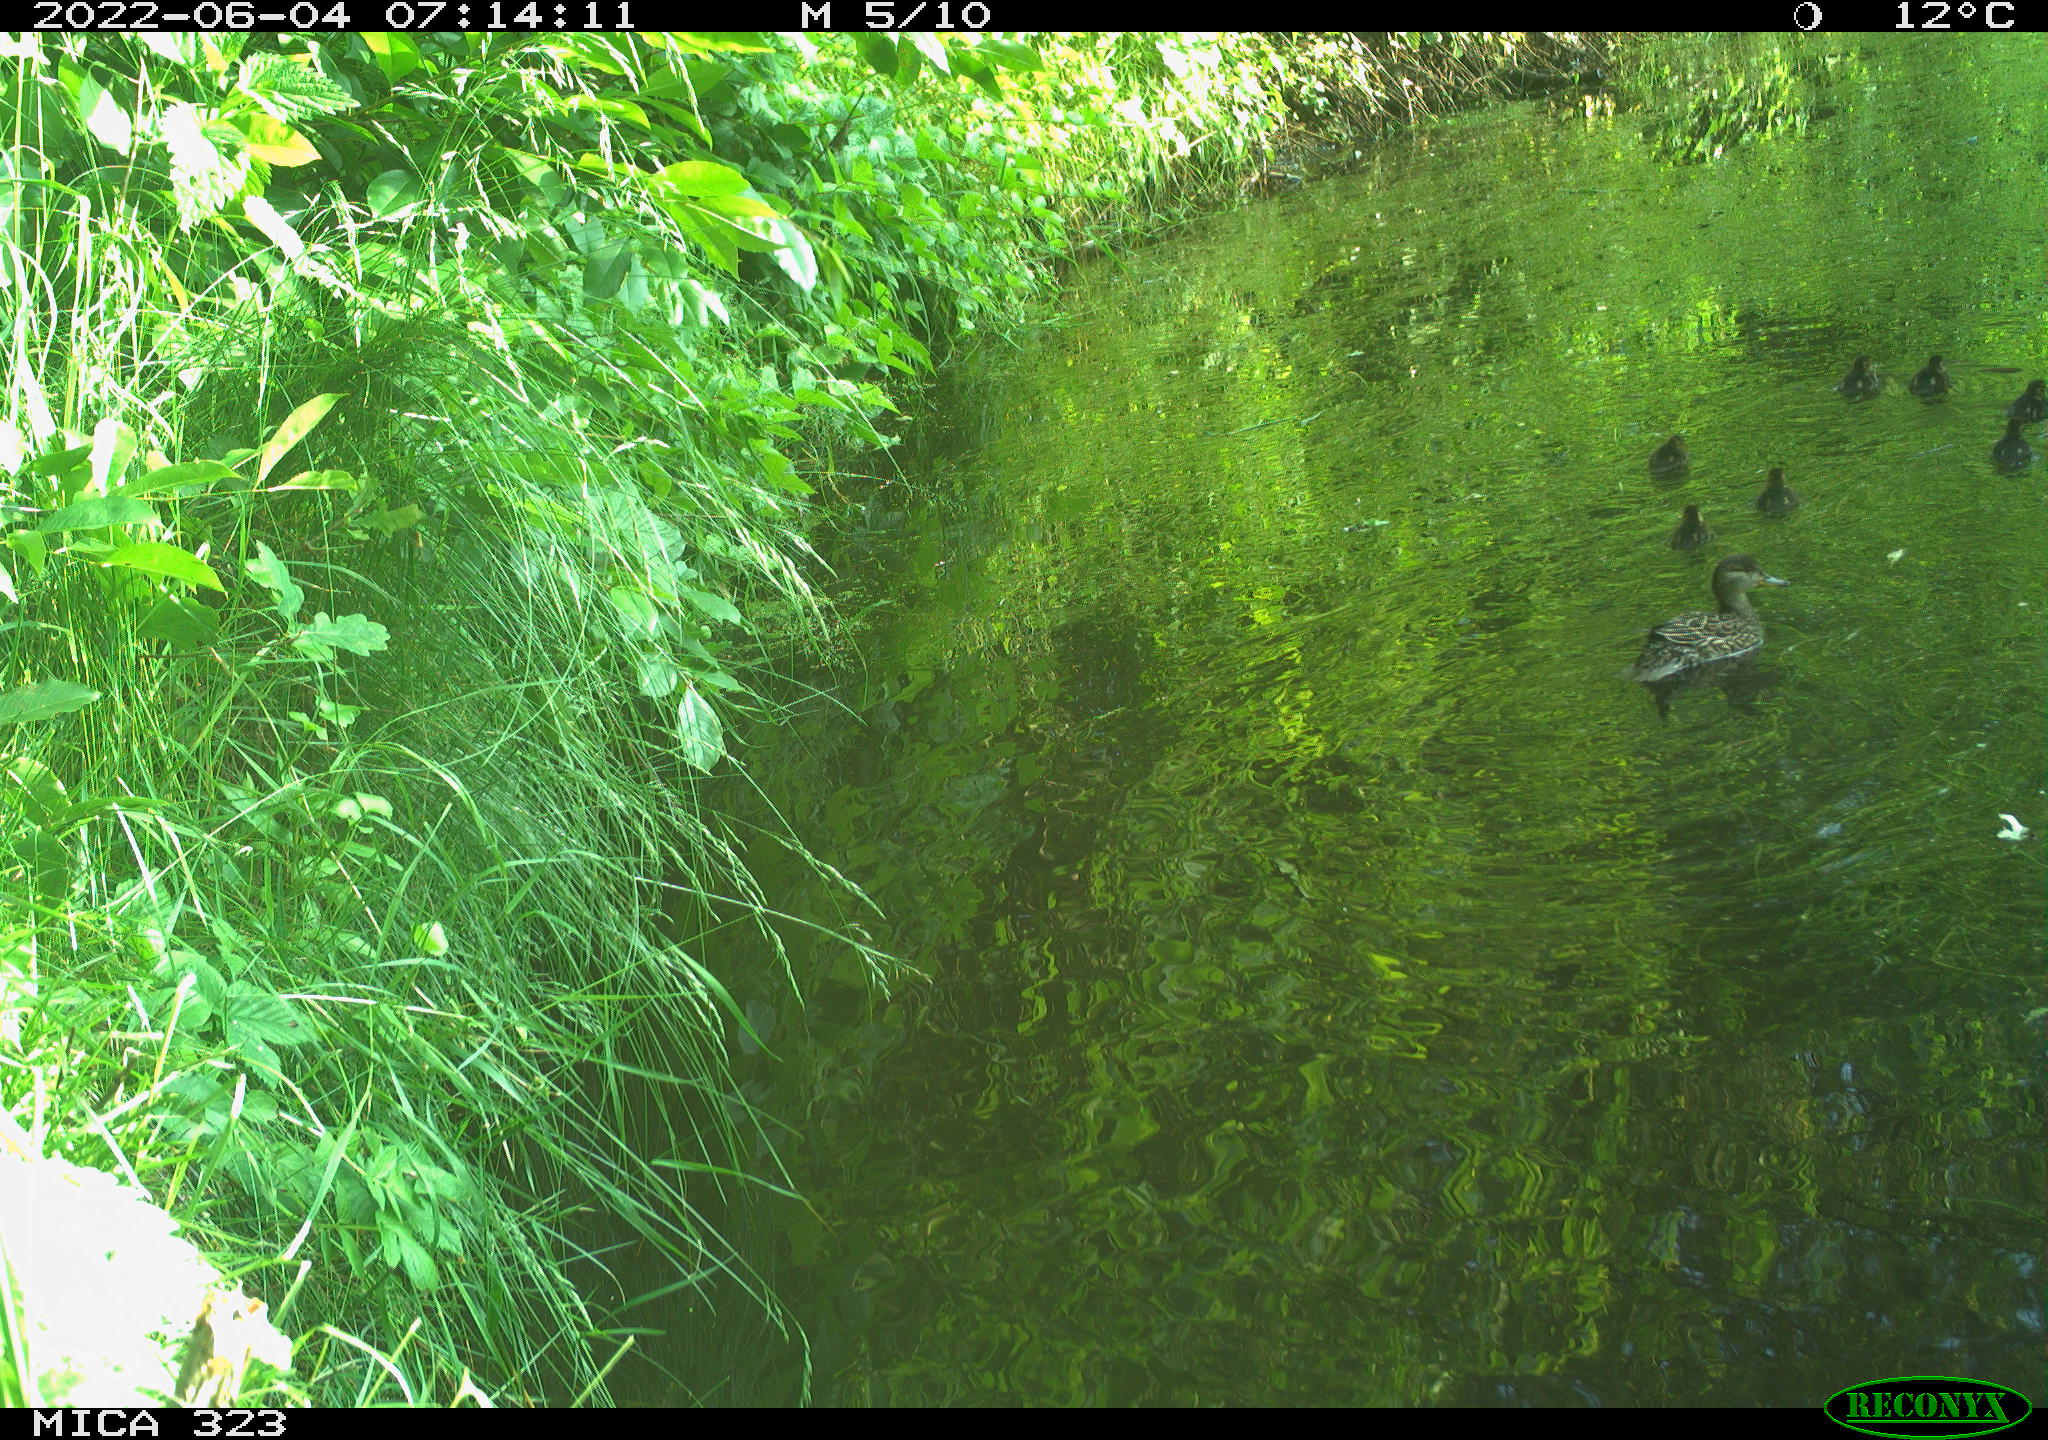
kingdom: Animalia
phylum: Chordata
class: Aves
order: Anseriformes
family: Anatidae
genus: Anas
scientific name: Anas platyrhynchos
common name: Mallard
